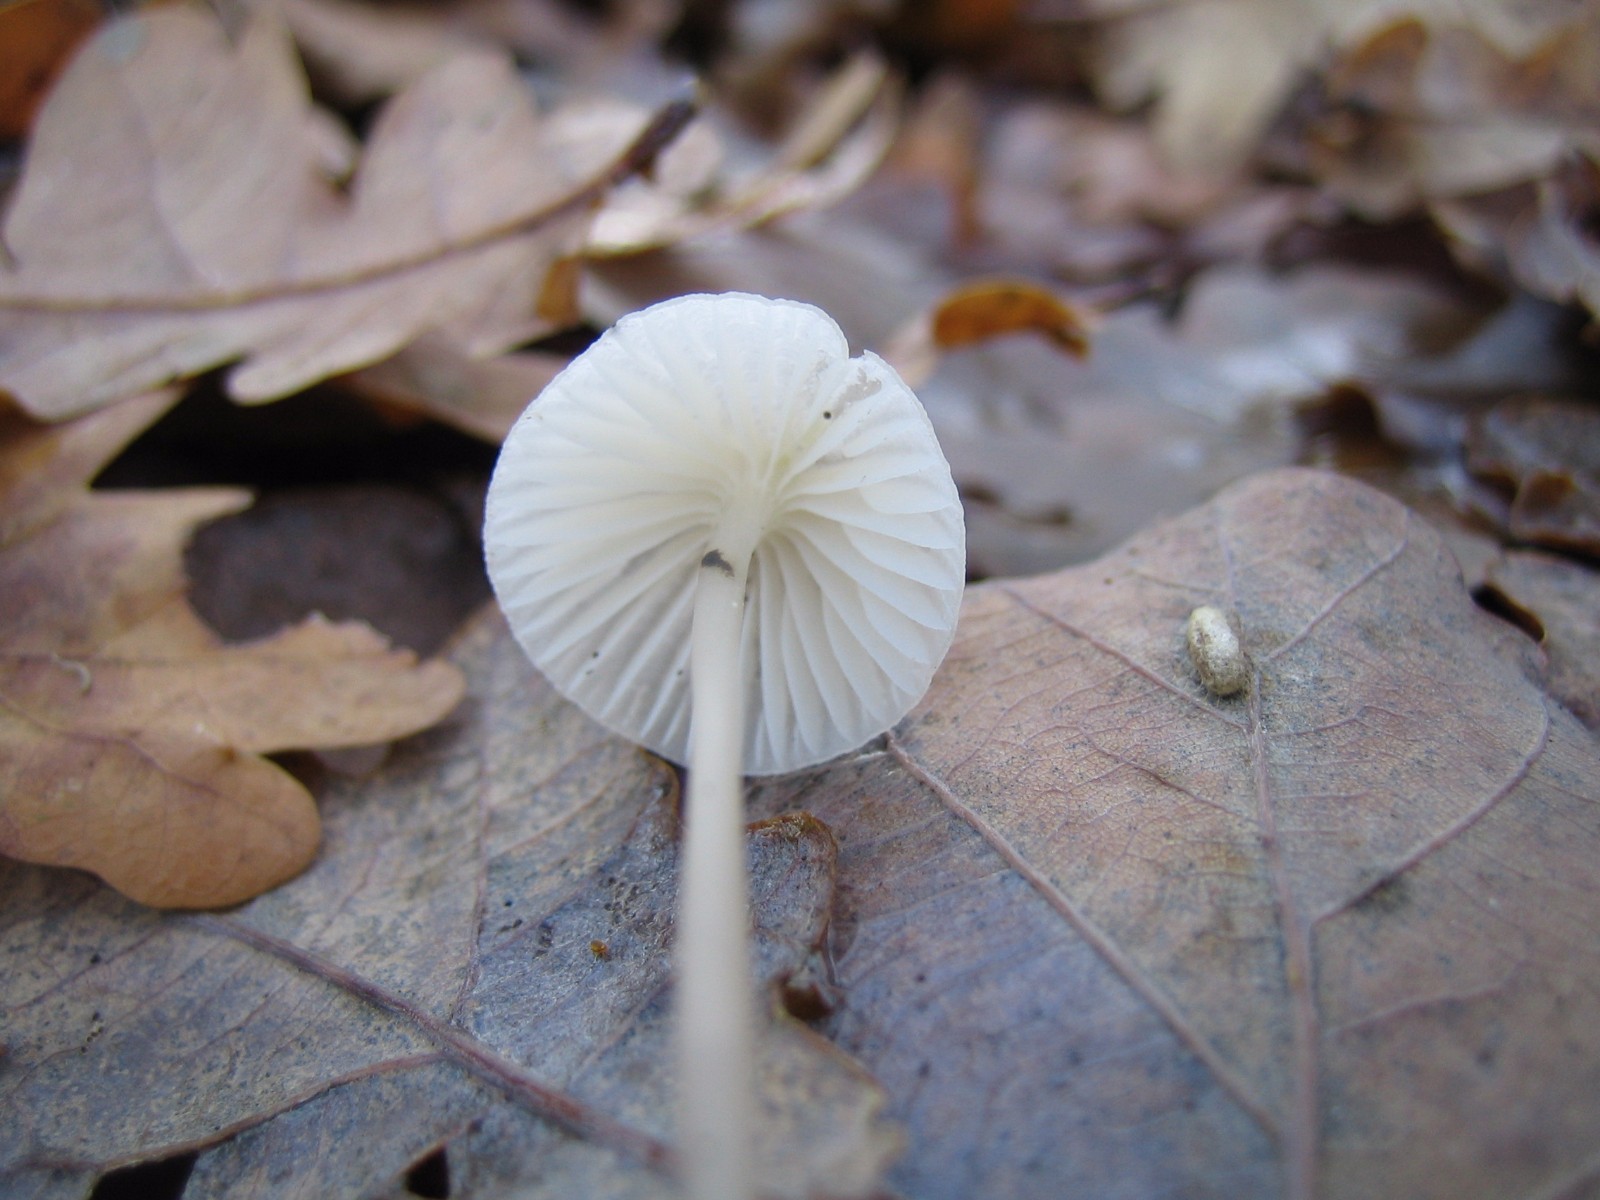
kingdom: Fungi
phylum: Basidiomycota
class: Agaricomycetes
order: Agaricales
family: Mycenaceae
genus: Mycena
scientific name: Mycena
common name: huesvamp
